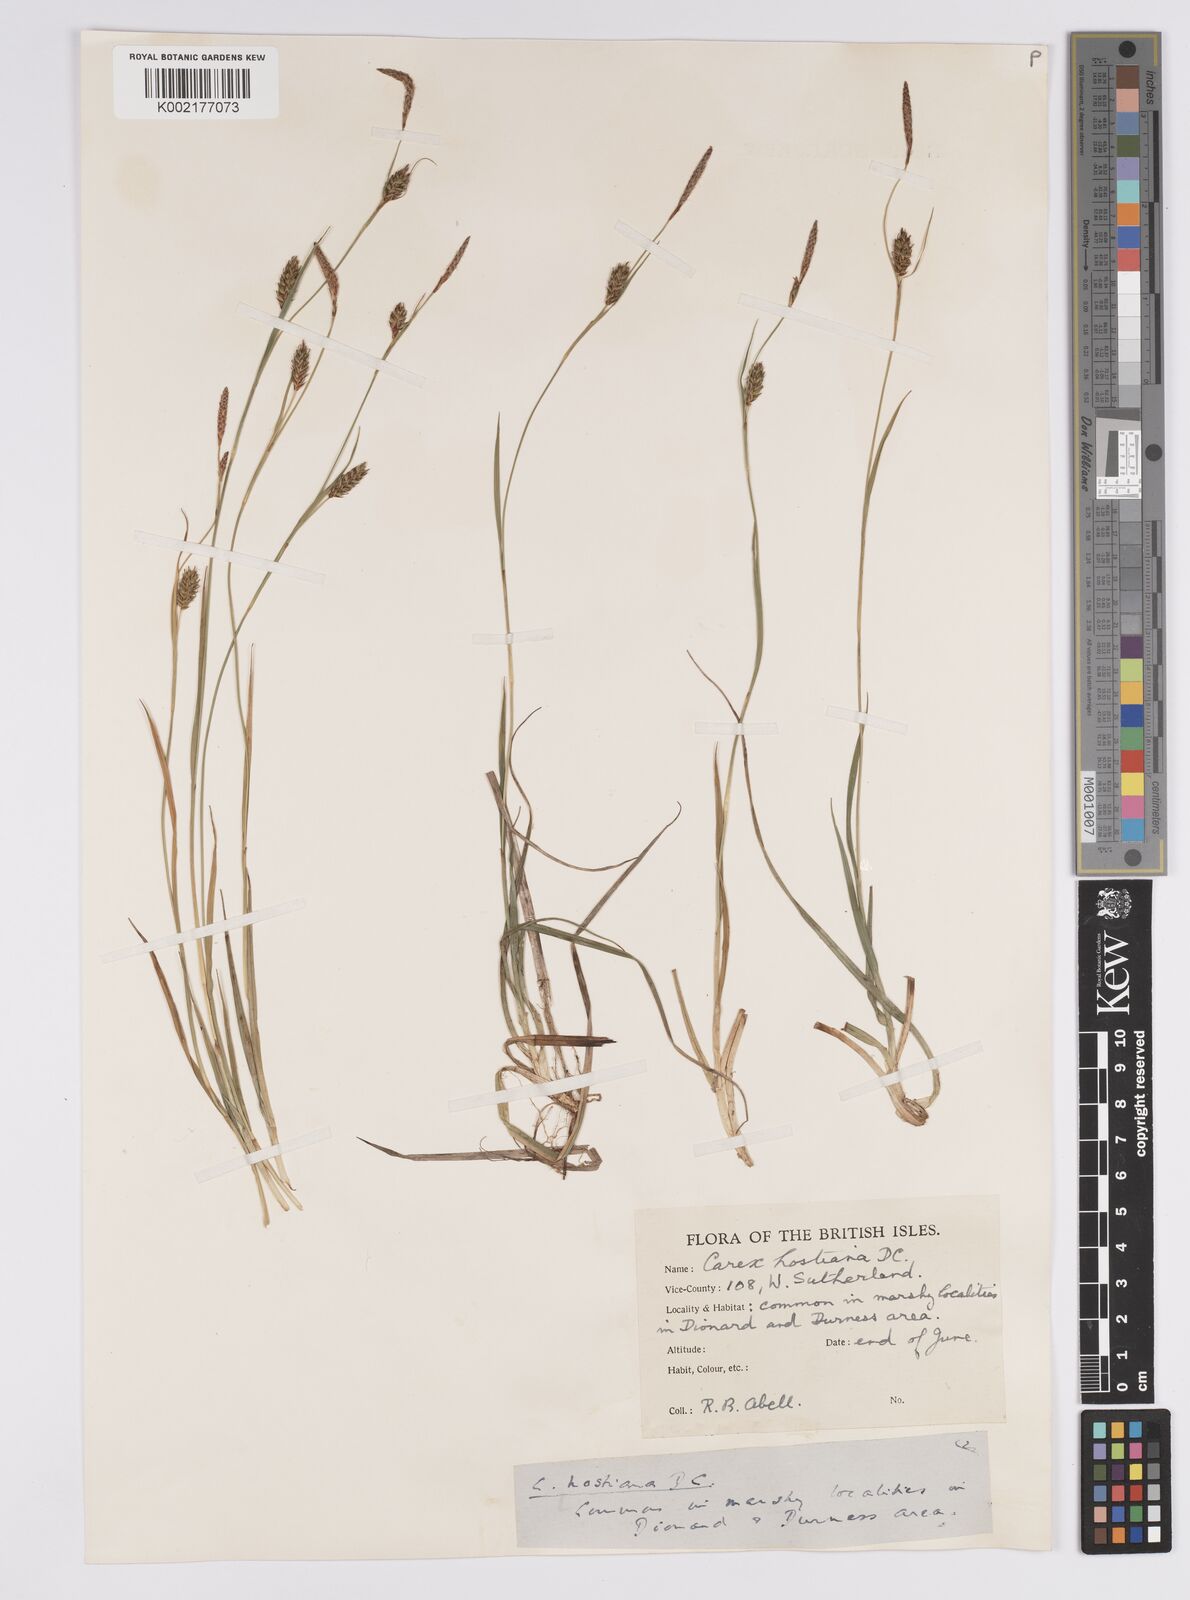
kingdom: Plantae
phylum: Tracheophyta
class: Liliopsida
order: Poales
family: Cyperaceae
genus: Carex
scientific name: Carex hostiana
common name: Tawny sedge
